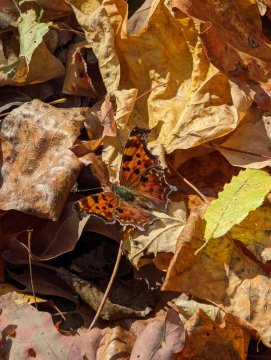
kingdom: Animalia
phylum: Arthropoda
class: Insecta
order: Lepidoptera
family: Nymphalidae
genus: Polygonia
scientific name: Polygonia comma
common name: Eastern Comma
